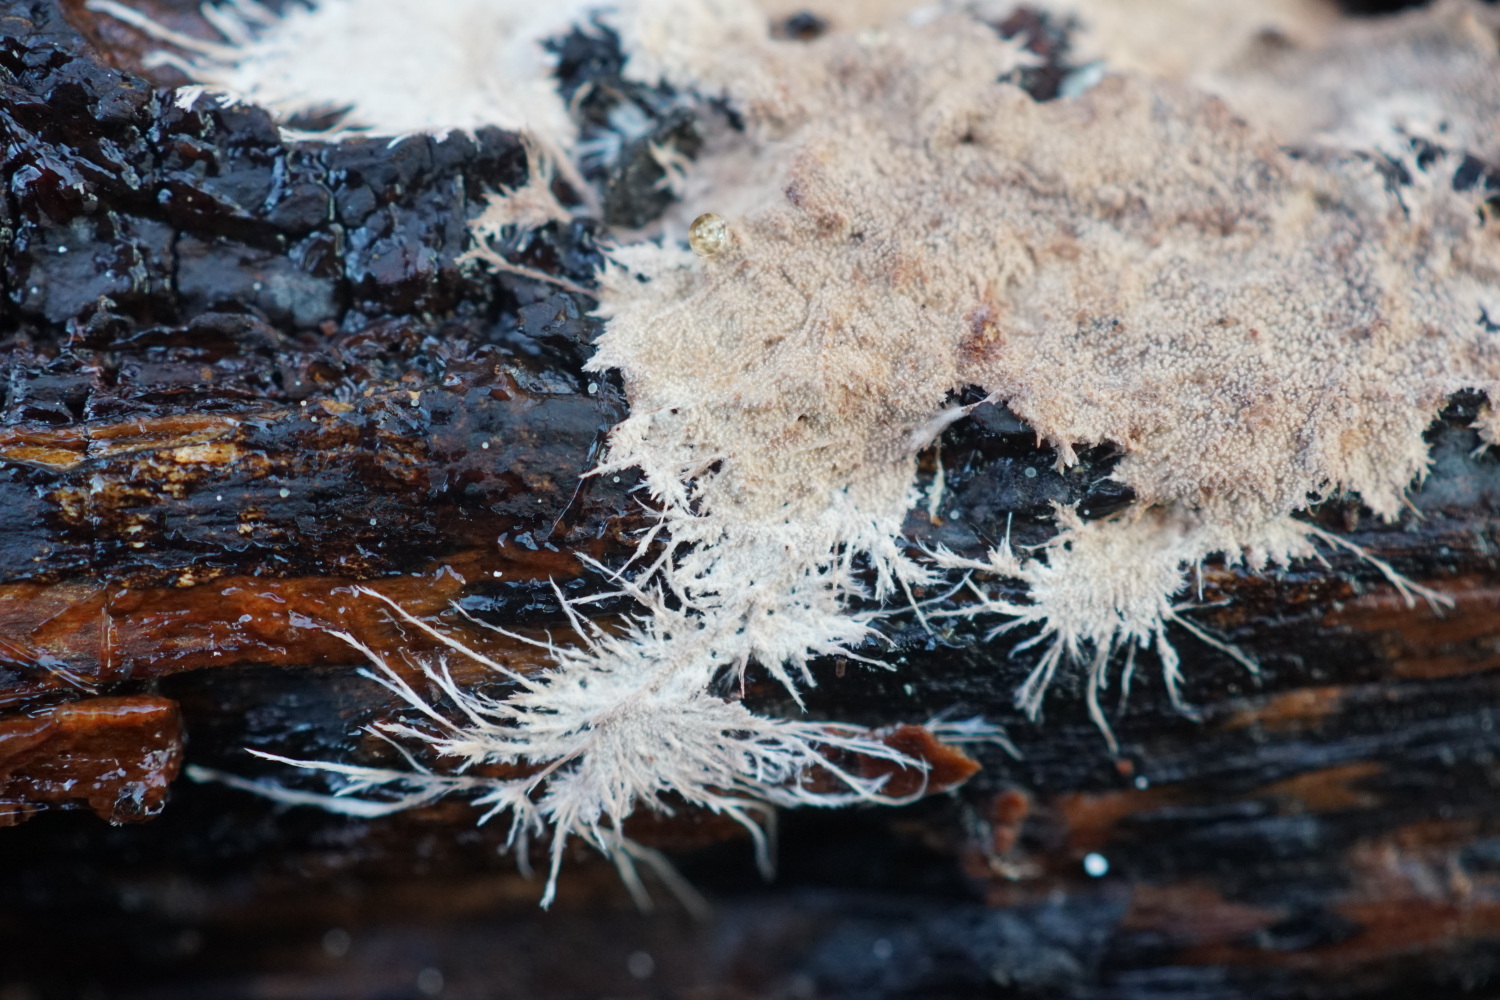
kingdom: Fungi
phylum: Basidiomycota
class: Agaricomycetes
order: Polyporales
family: Steccherinaceae
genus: Steccherinum
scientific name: Steccherinum fimbriatum
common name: trådet skønpig
